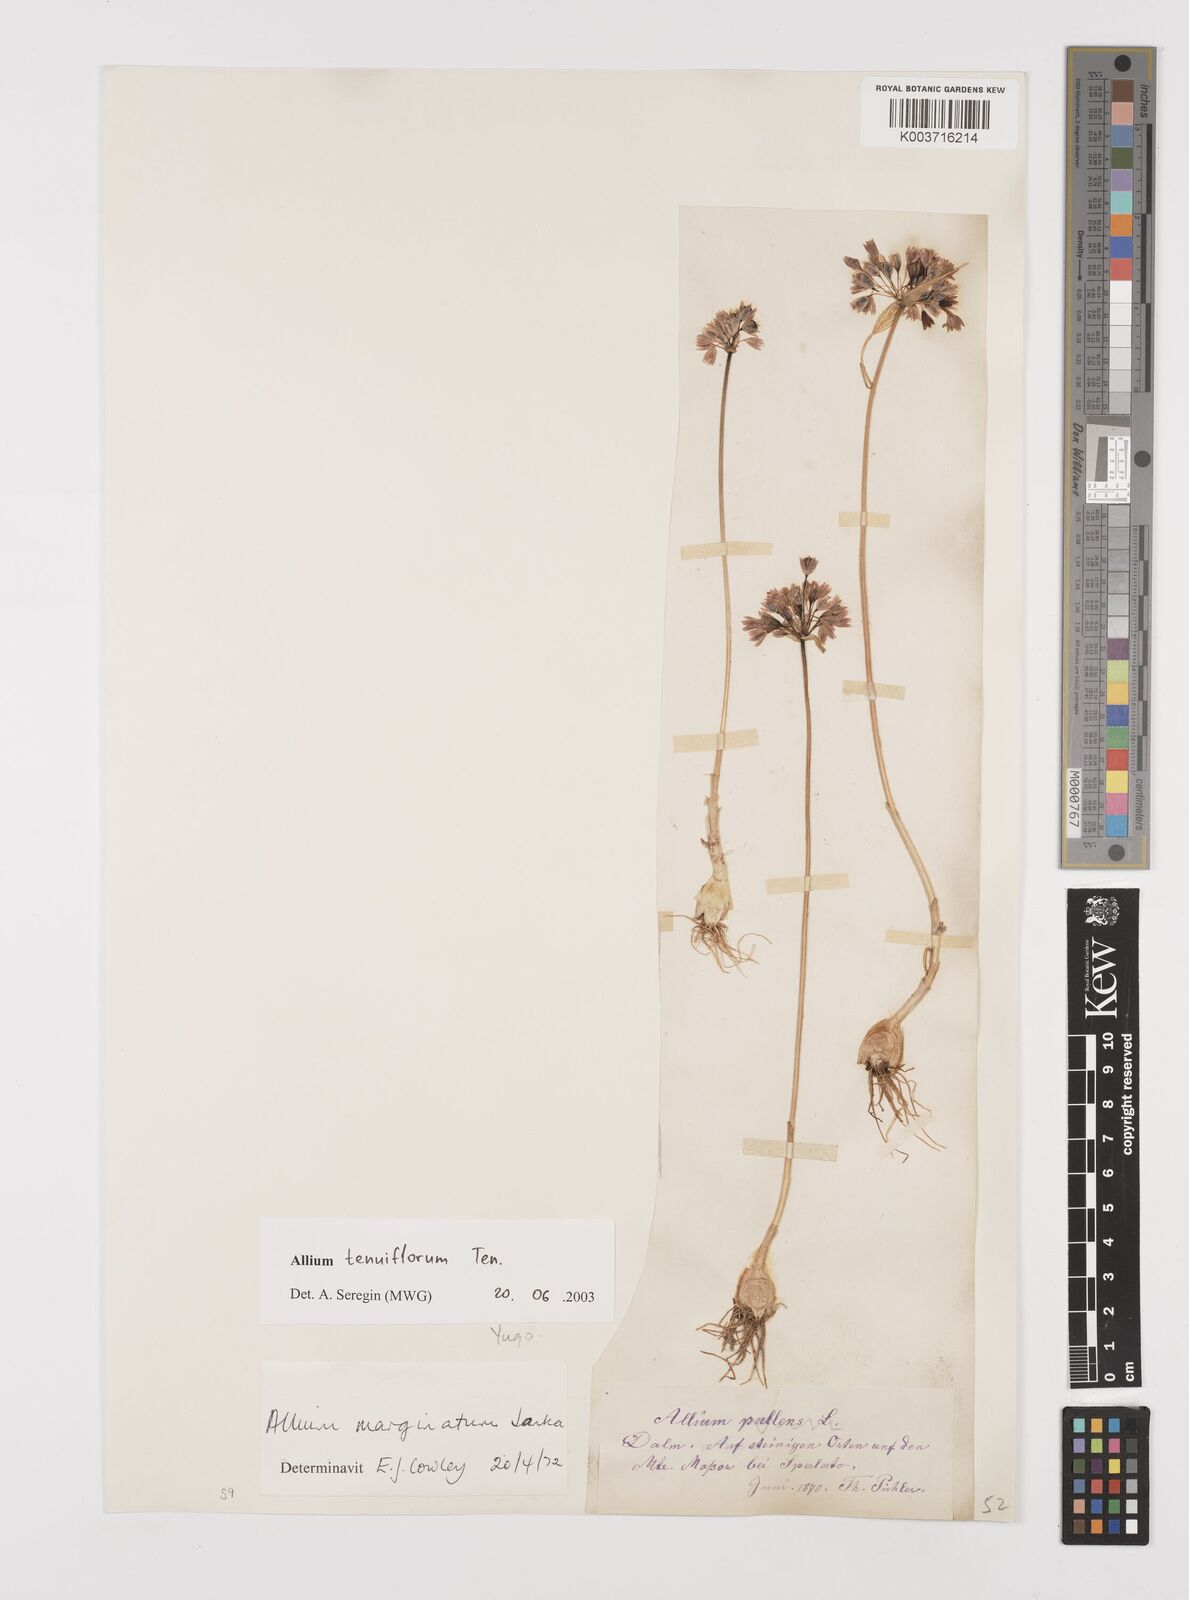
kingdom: Plantae
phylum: Tracheophyta
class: Liliopsida
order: Asparagales
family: Amaryllidaceae
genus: Allium
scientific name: Allium tenuiflorum
